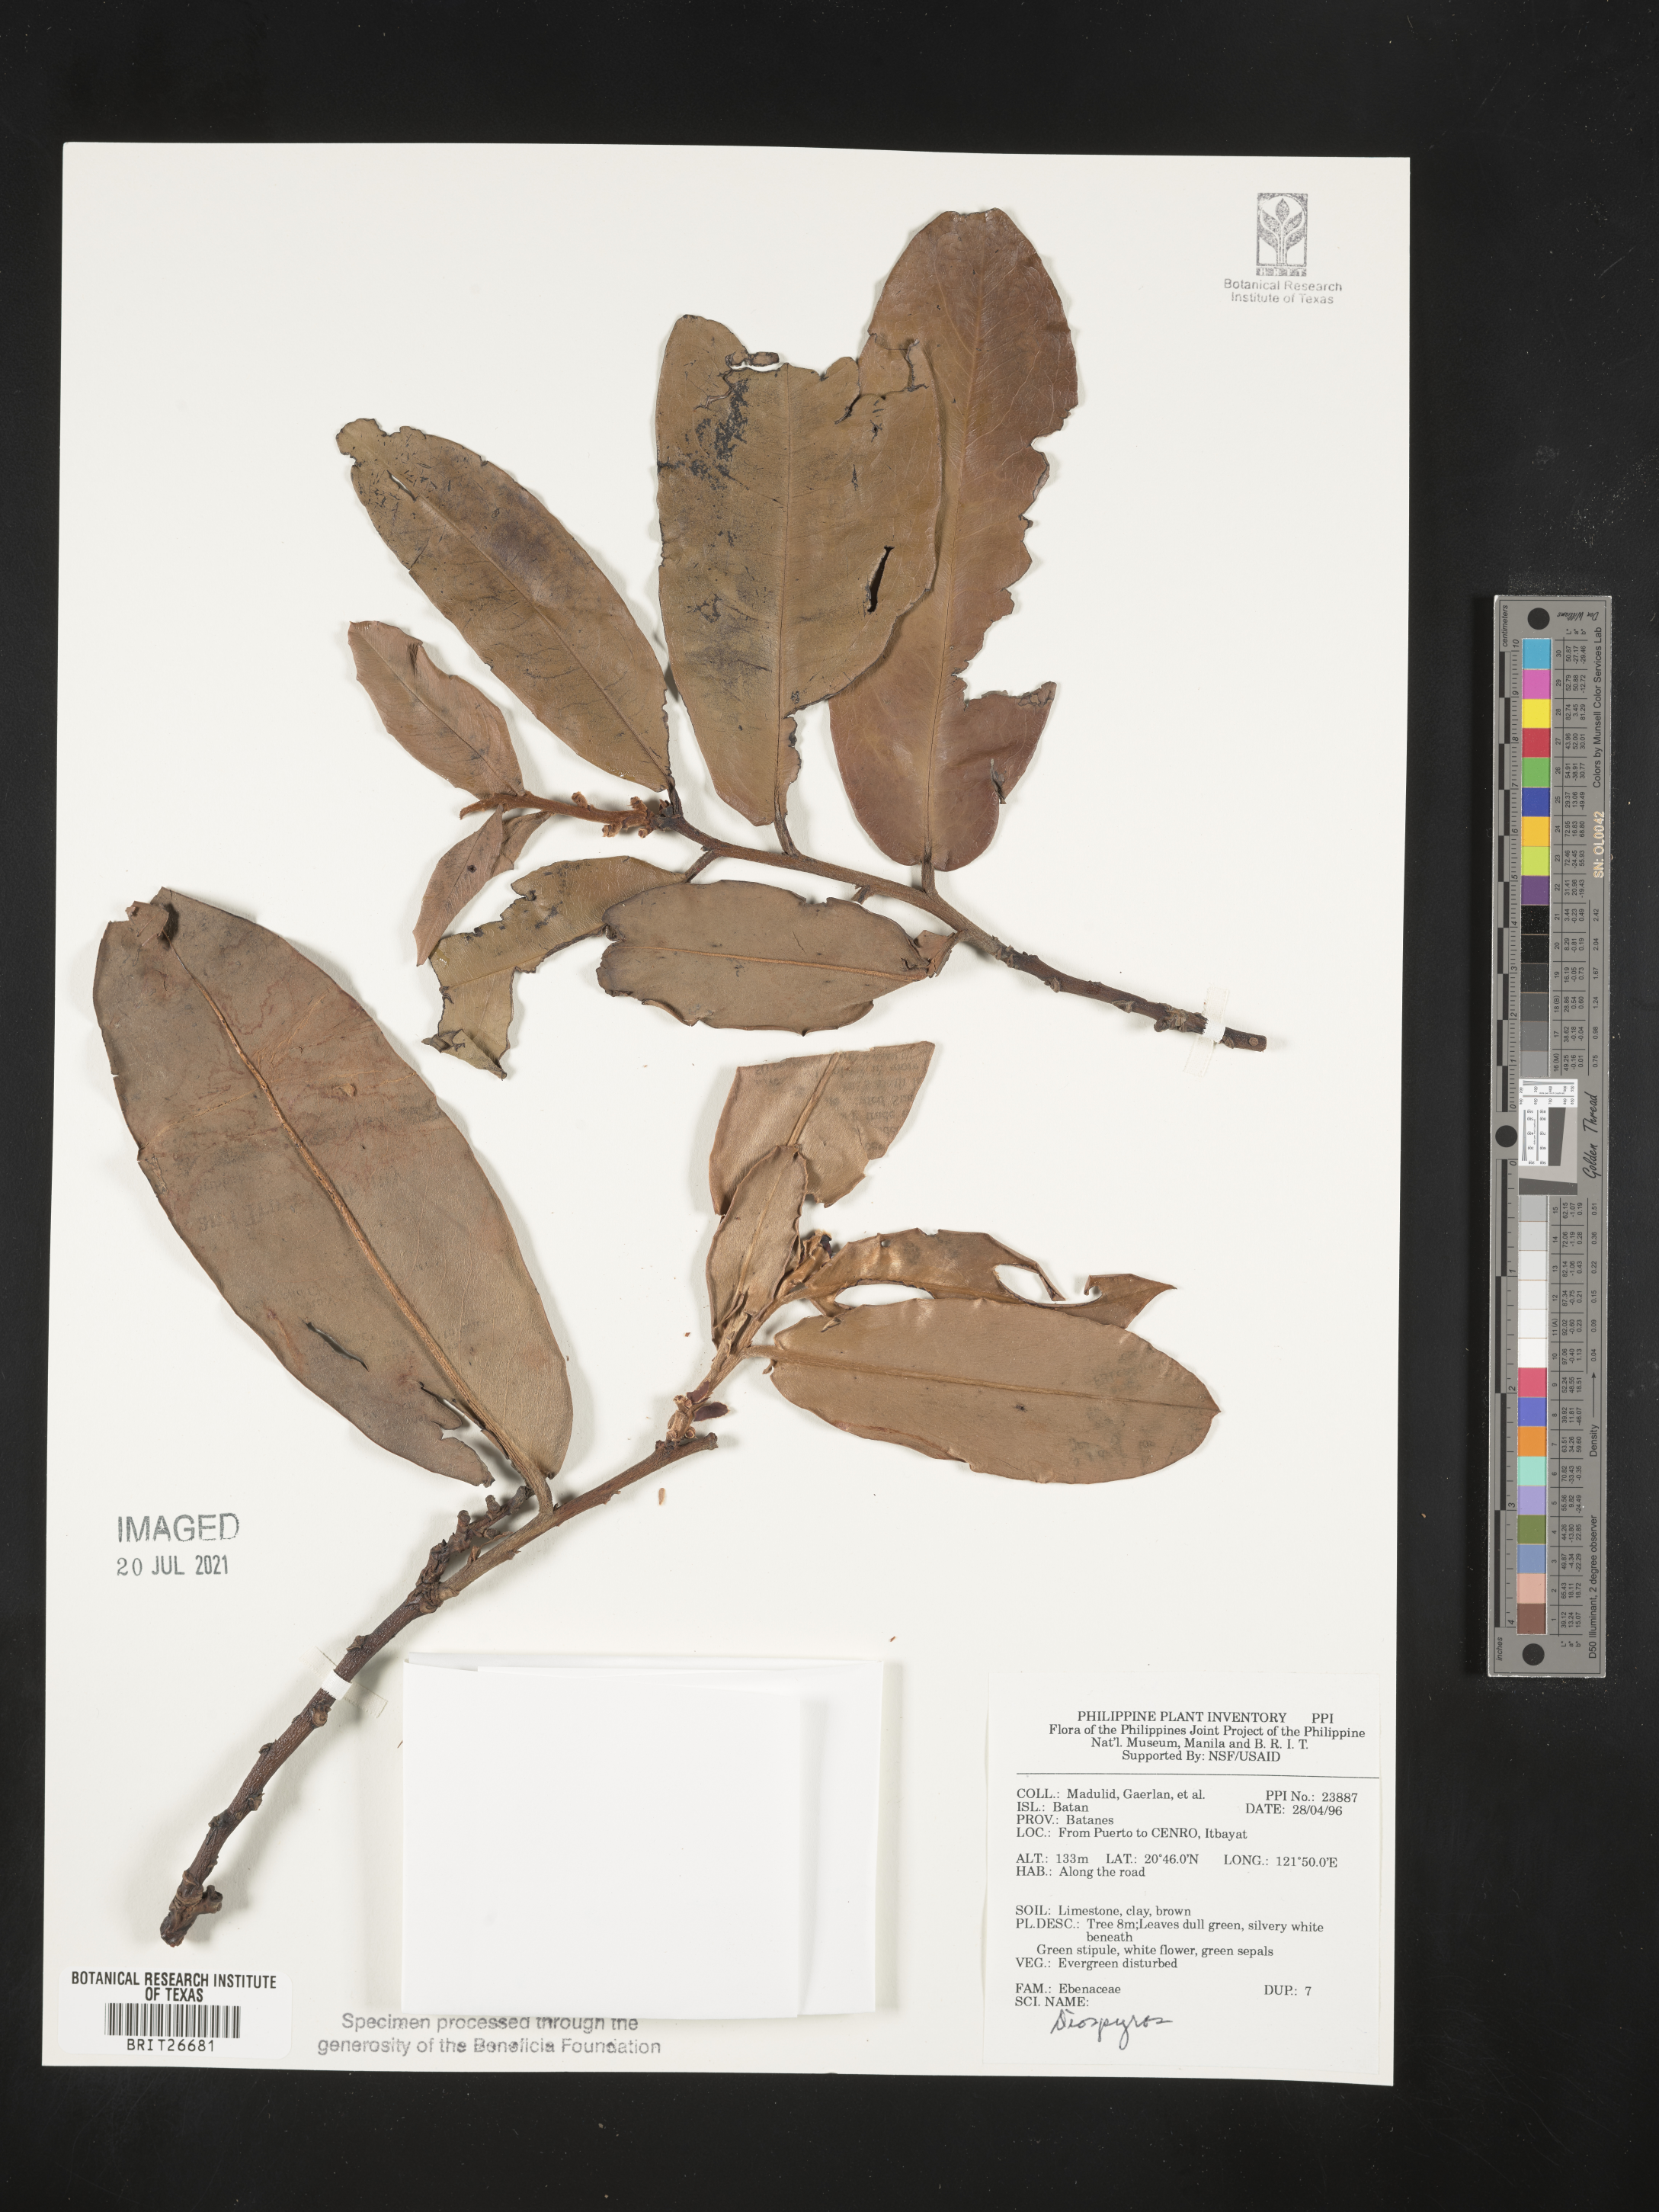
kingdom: Plantae
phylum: Tracheophyta
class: Magnoliopsida
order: Ericales
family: Ebenaceae
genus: Diospyros
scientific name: Diospyros
